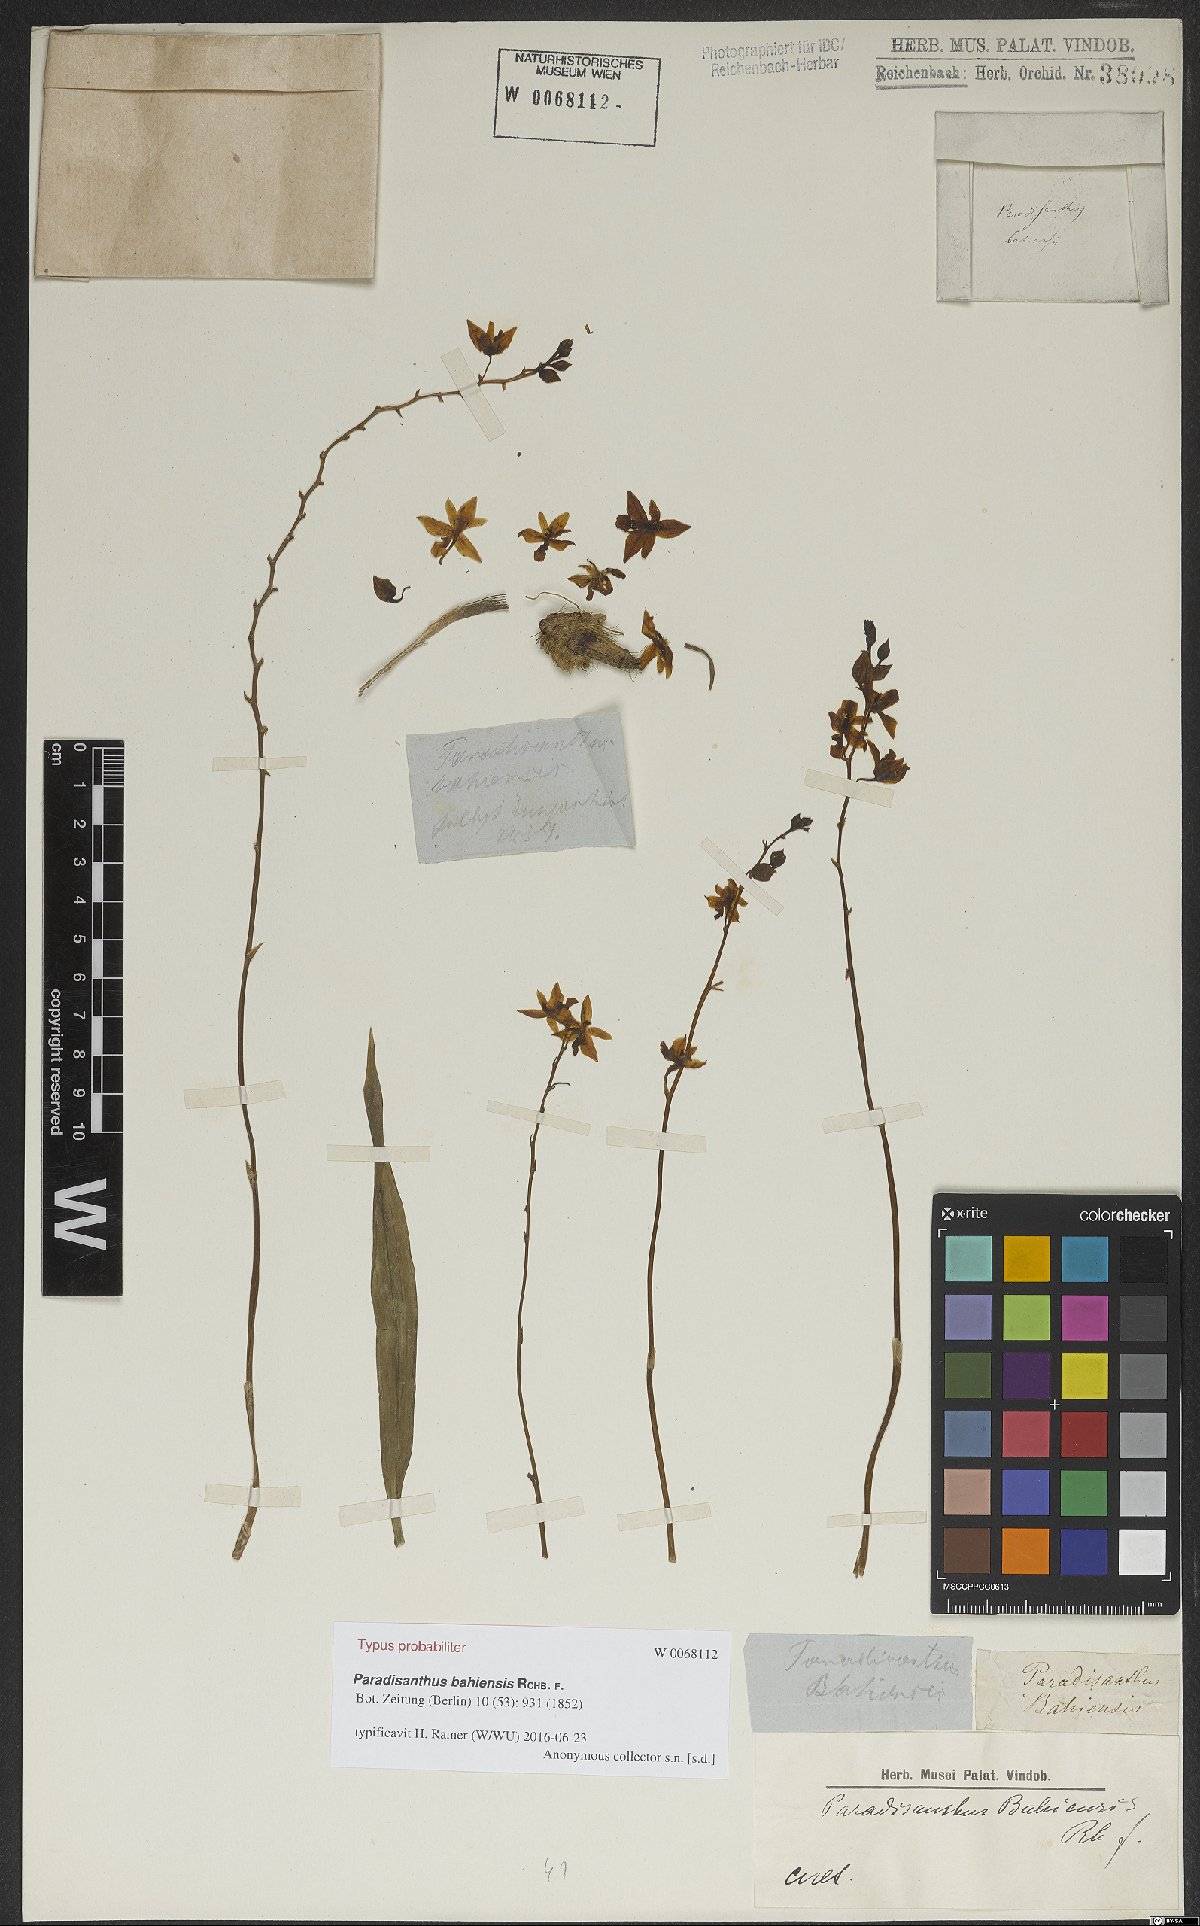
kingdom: Plantae
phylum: Tracheophyta
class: Liliopsida
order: Asparagales
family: Orchidaceae
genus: Paradisanthus
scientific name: Paradisanthus bahiensis
